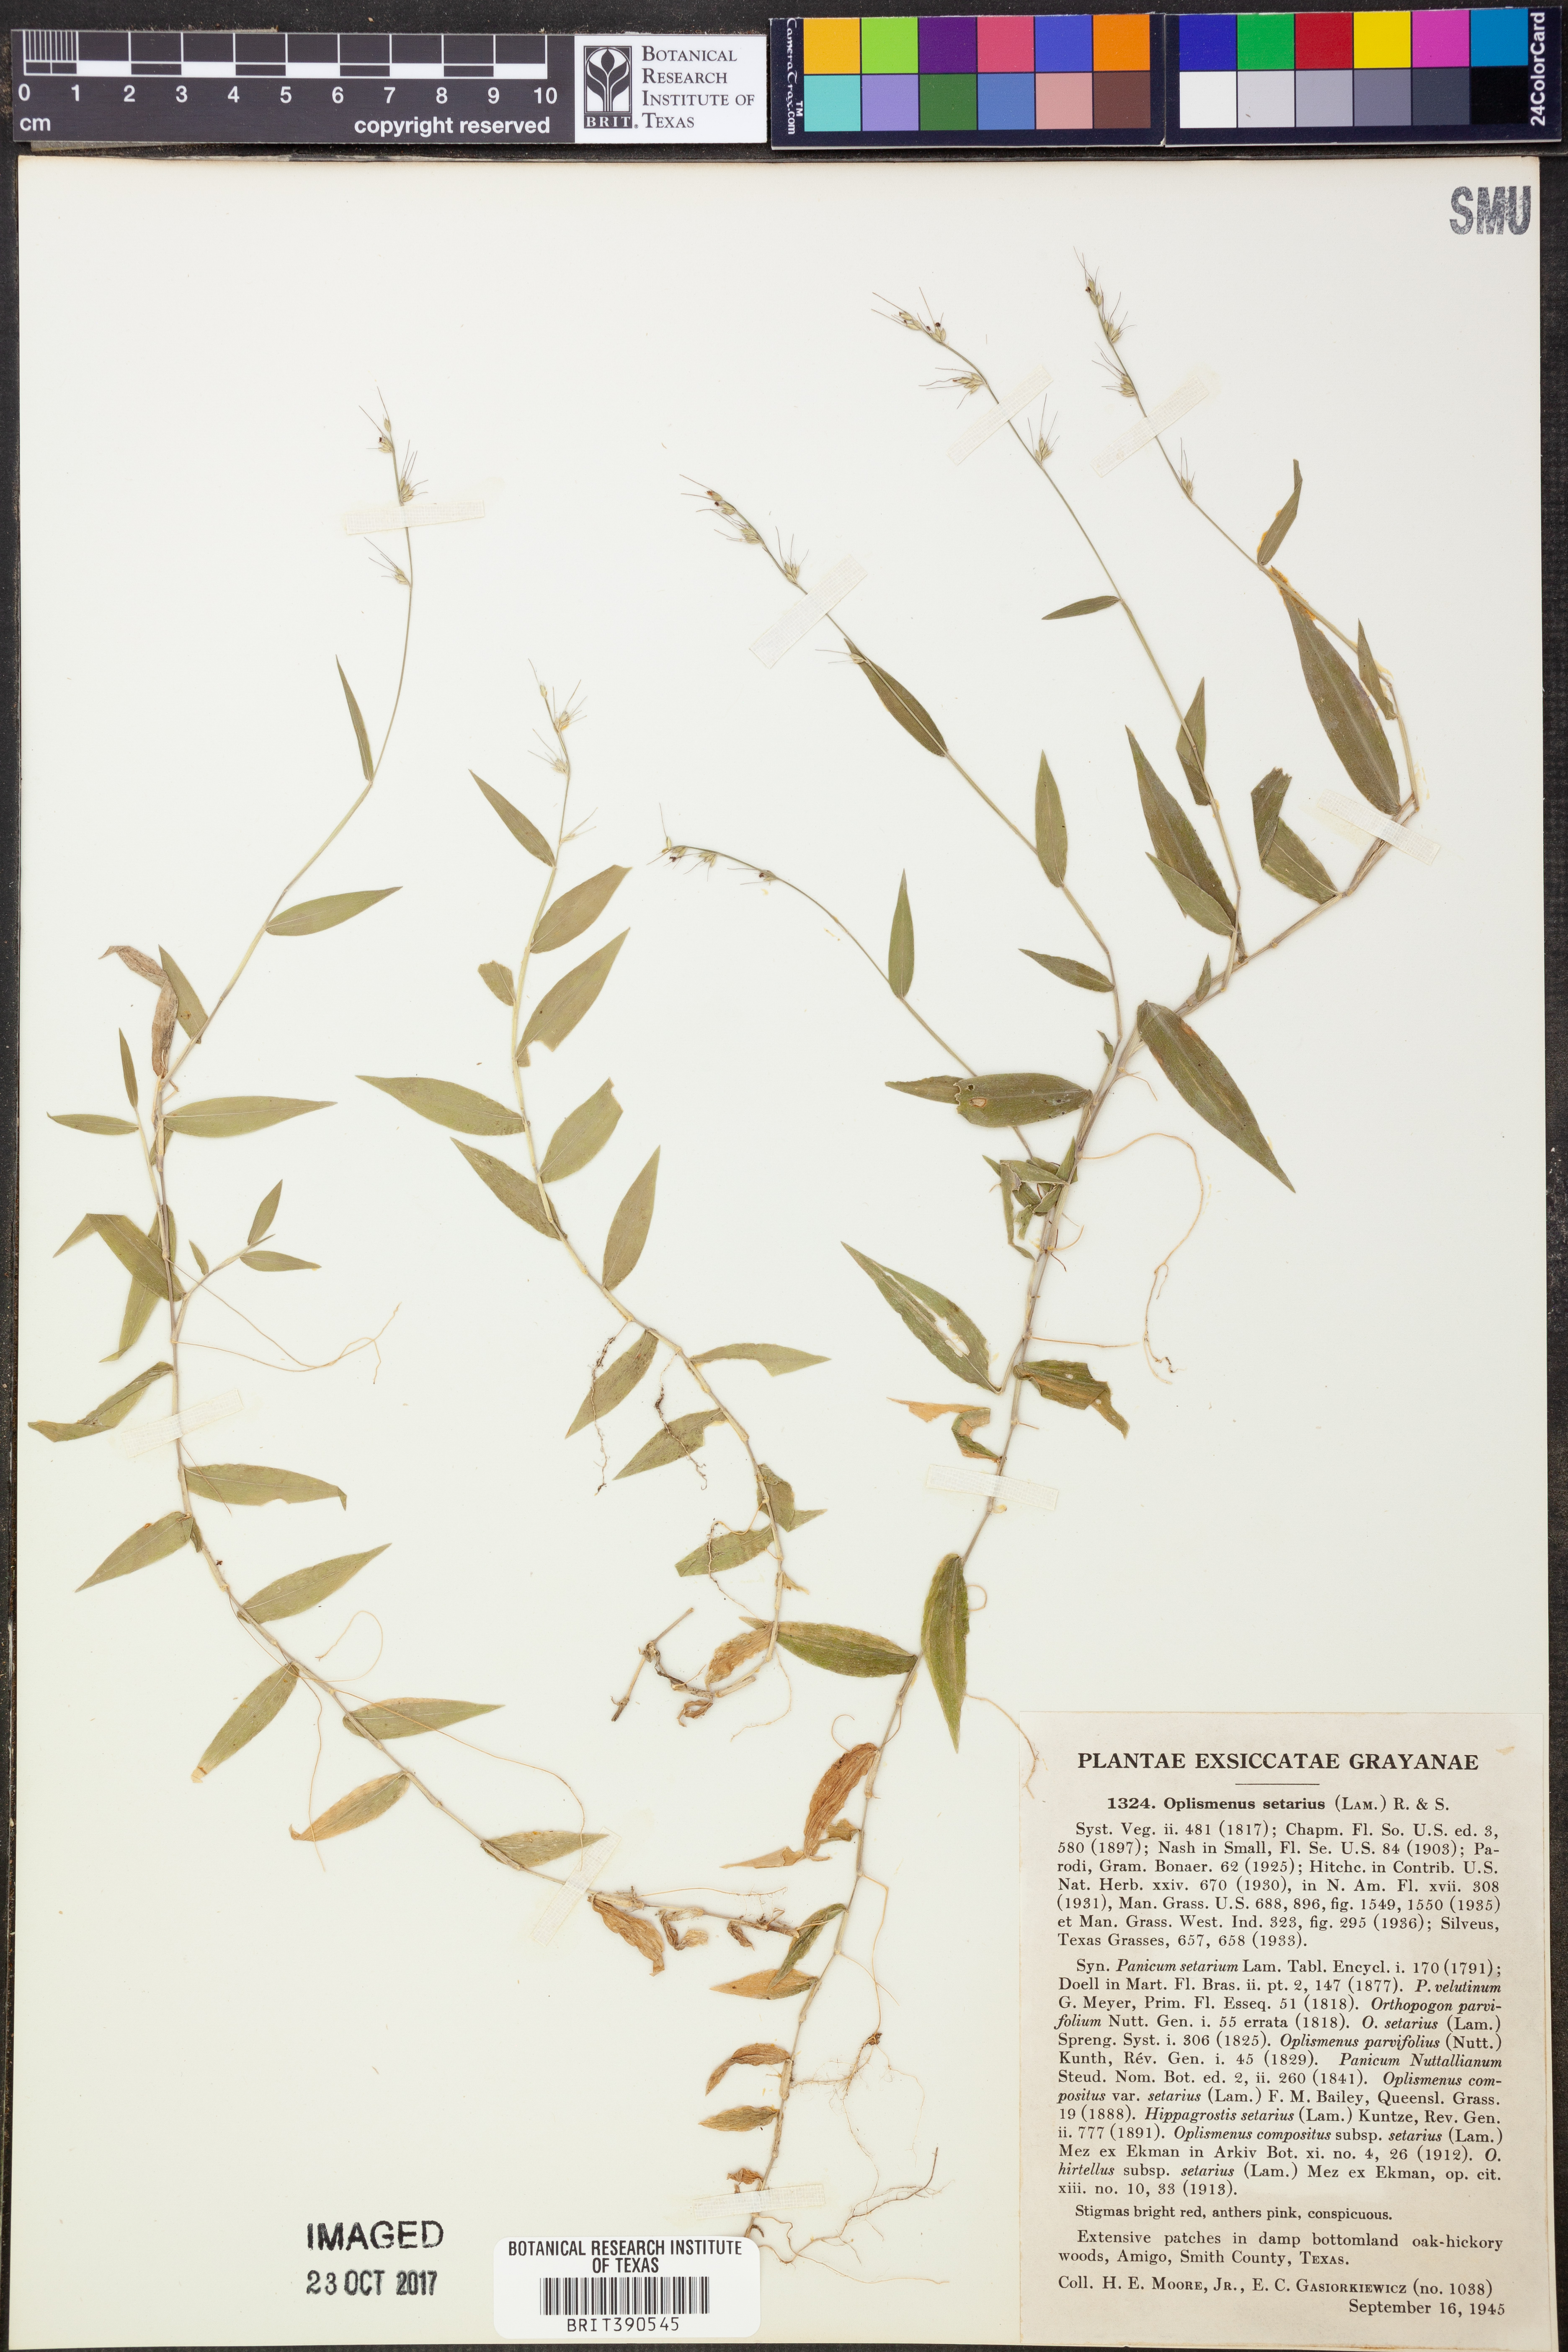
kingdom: Plantae
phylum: Tracheophyta
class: Liliopsida
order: Poales
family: Poaceae
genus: Oplismenus
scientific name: Oplismenus compositus
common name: Running mountain grass
